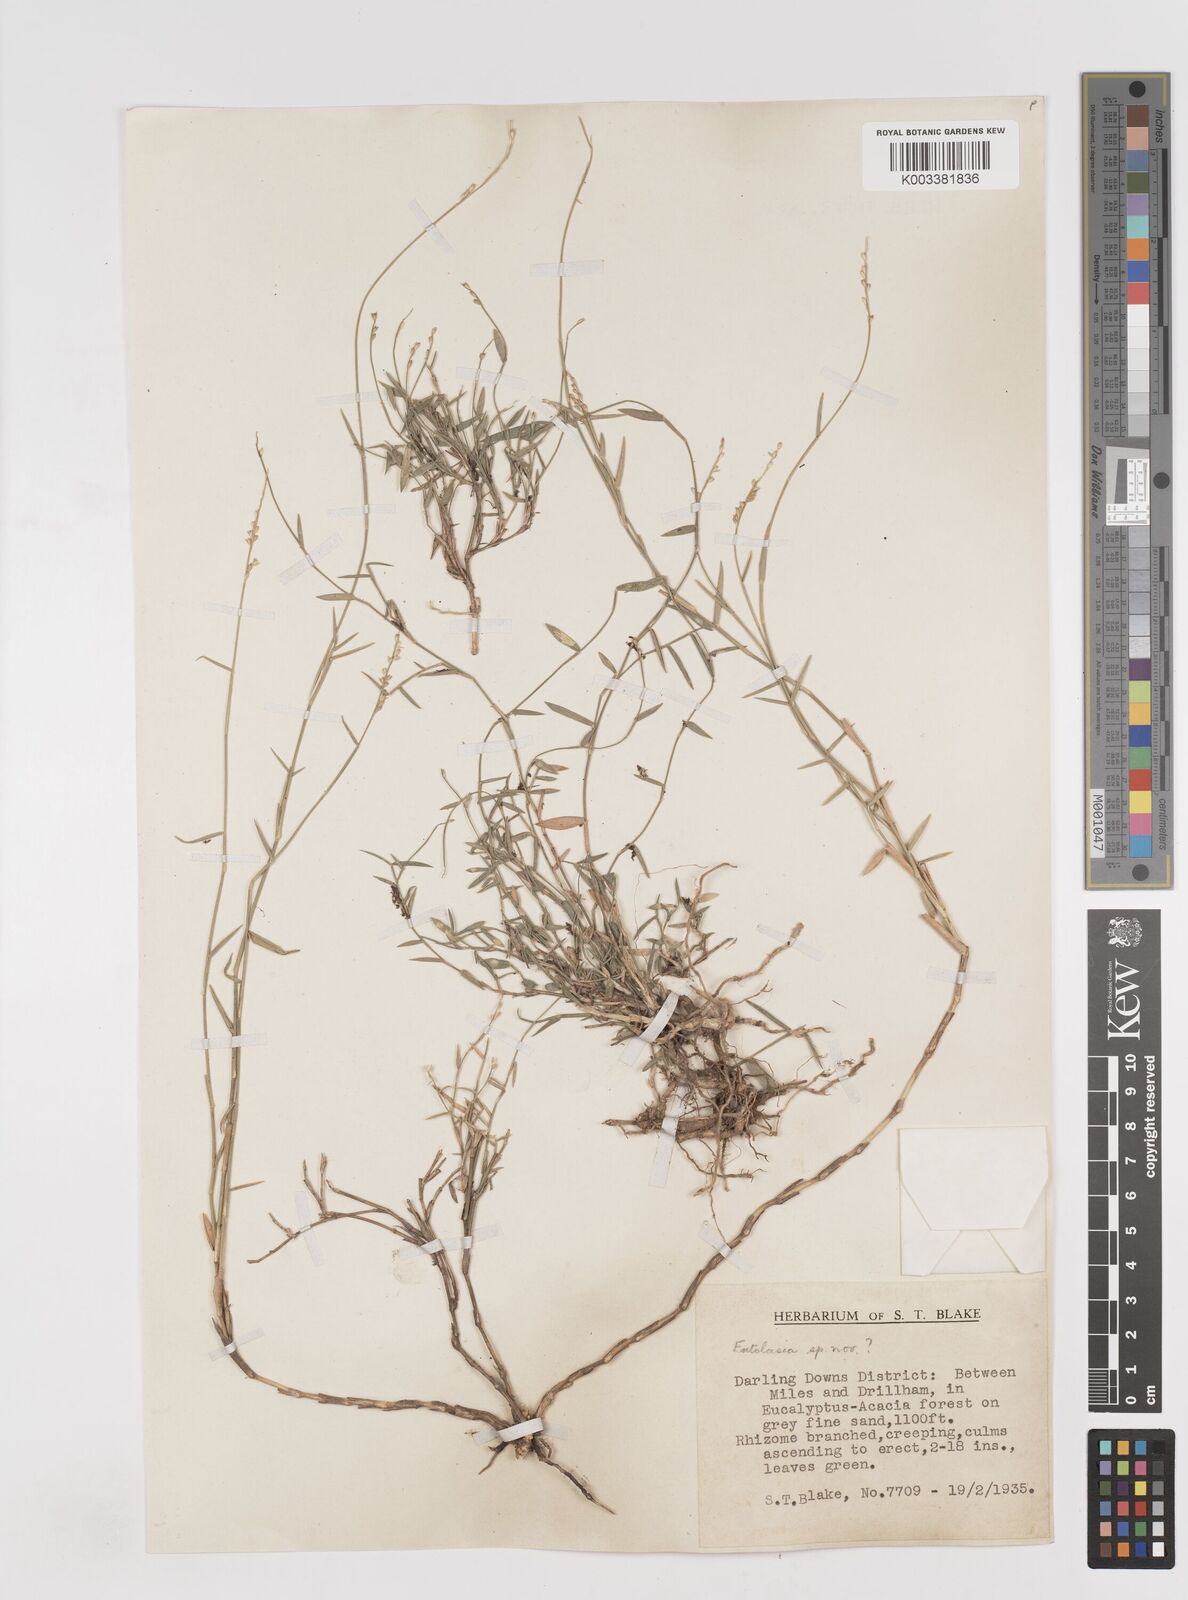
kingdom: Plantae
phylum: Tracheophyta
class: Liliopsida
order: Poales
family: Poaceae
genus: Entolasia
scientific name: Entolasia
